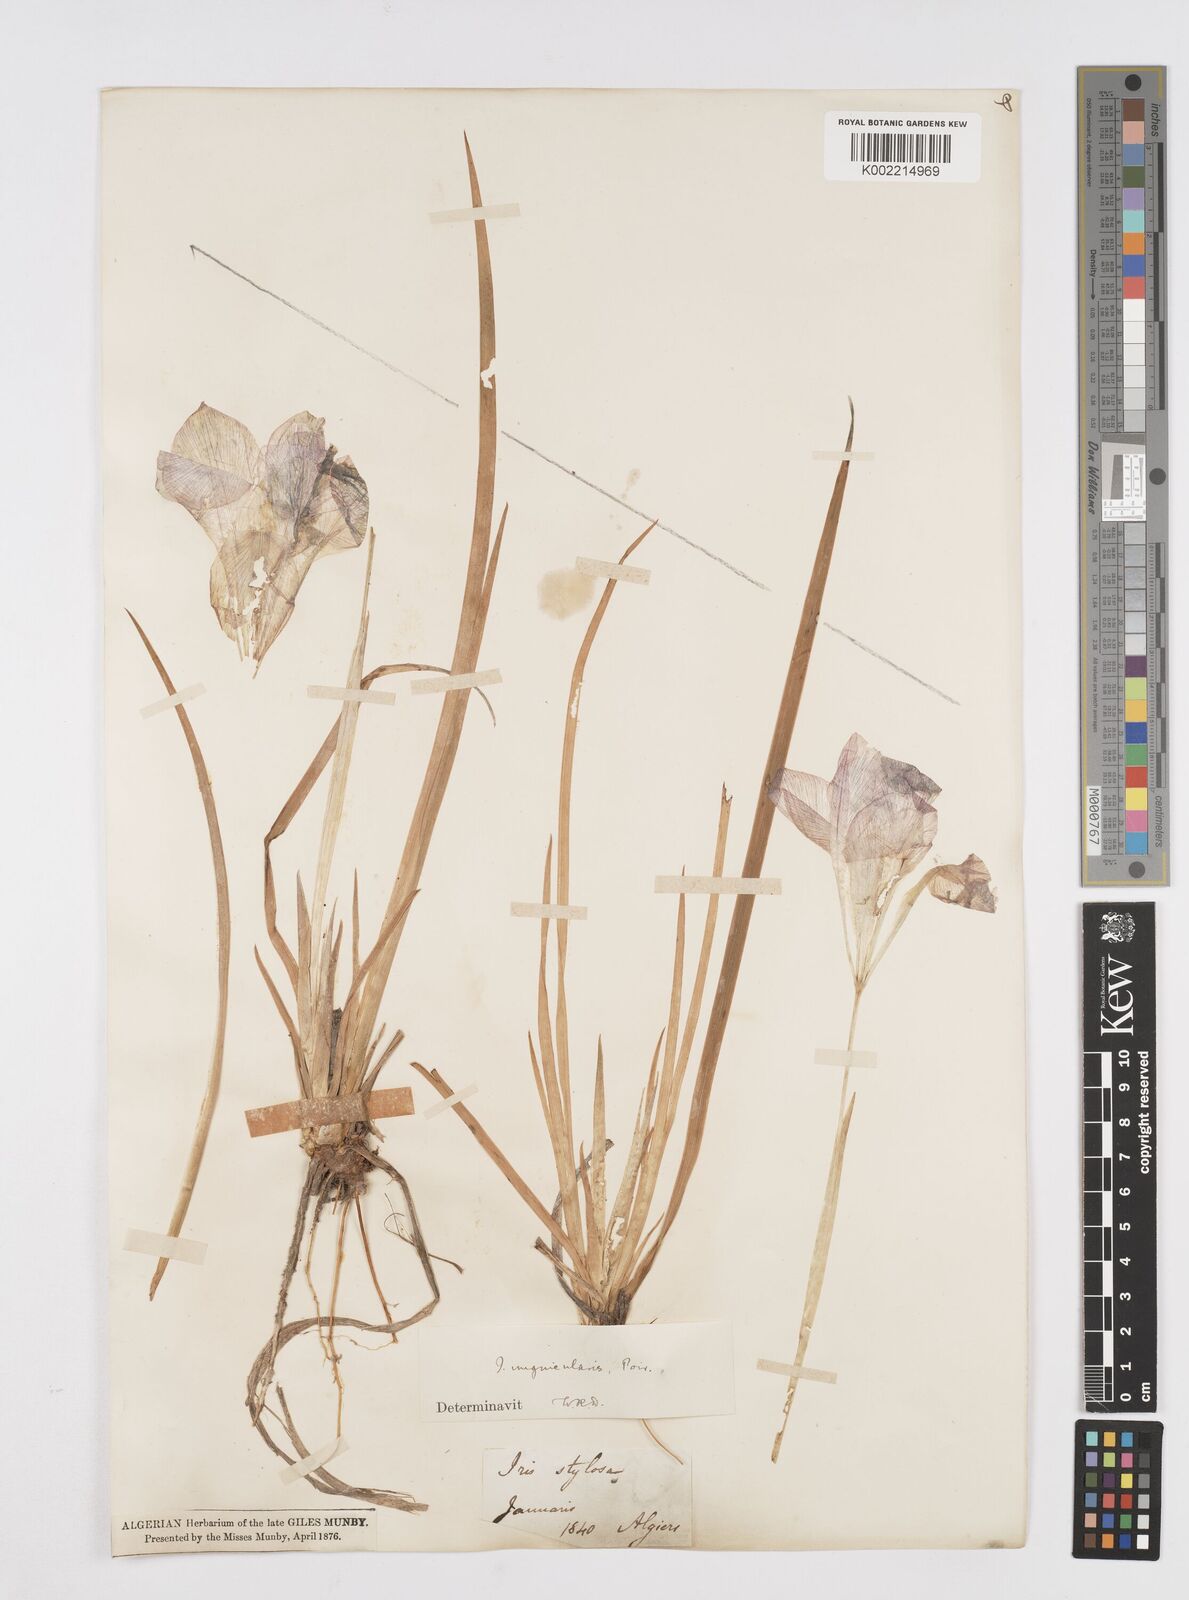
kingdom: Plantae
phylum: Tracheophyta
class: Liliopsida
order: Asparagales
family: Iridaceae
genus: Iris
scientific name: Iris unguicularis
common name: Algerian iris
